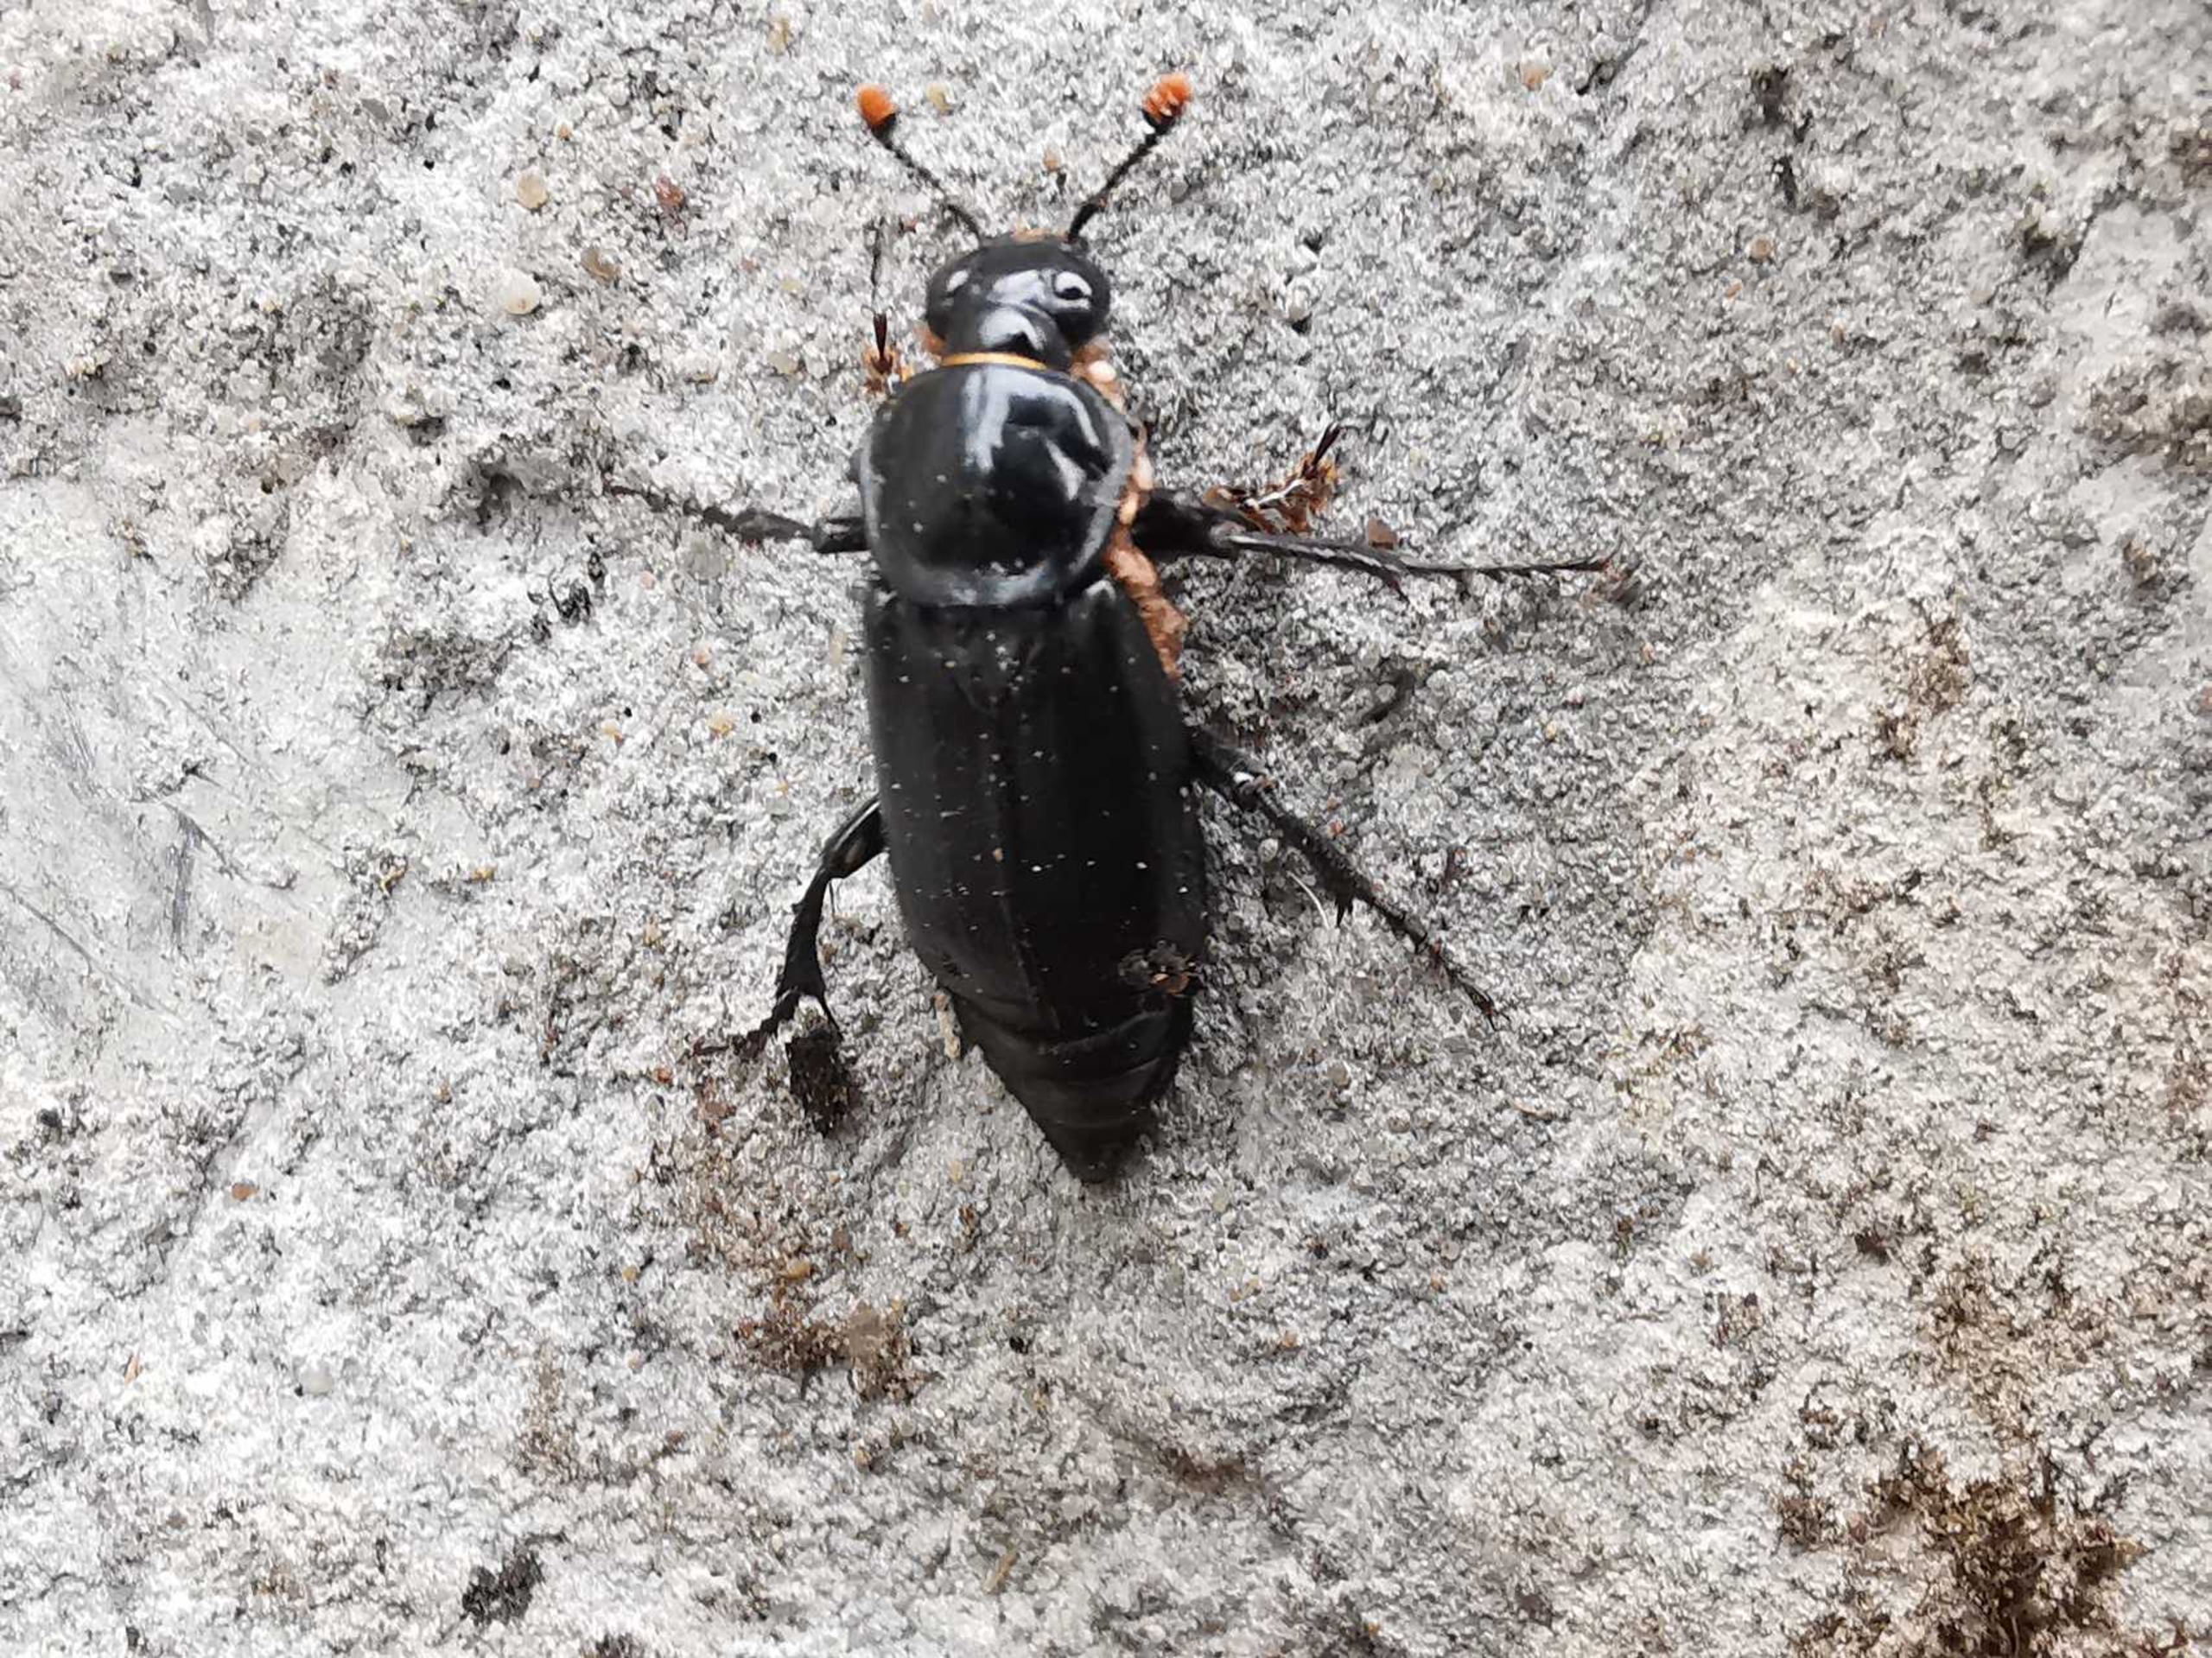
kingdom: Animalia
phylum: Arthropoda
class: Insecta
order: Coleoptera
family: Staphylinidae
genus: Nicrophorus
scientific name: Nicrophorus humator
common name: Sort ådselgraver
